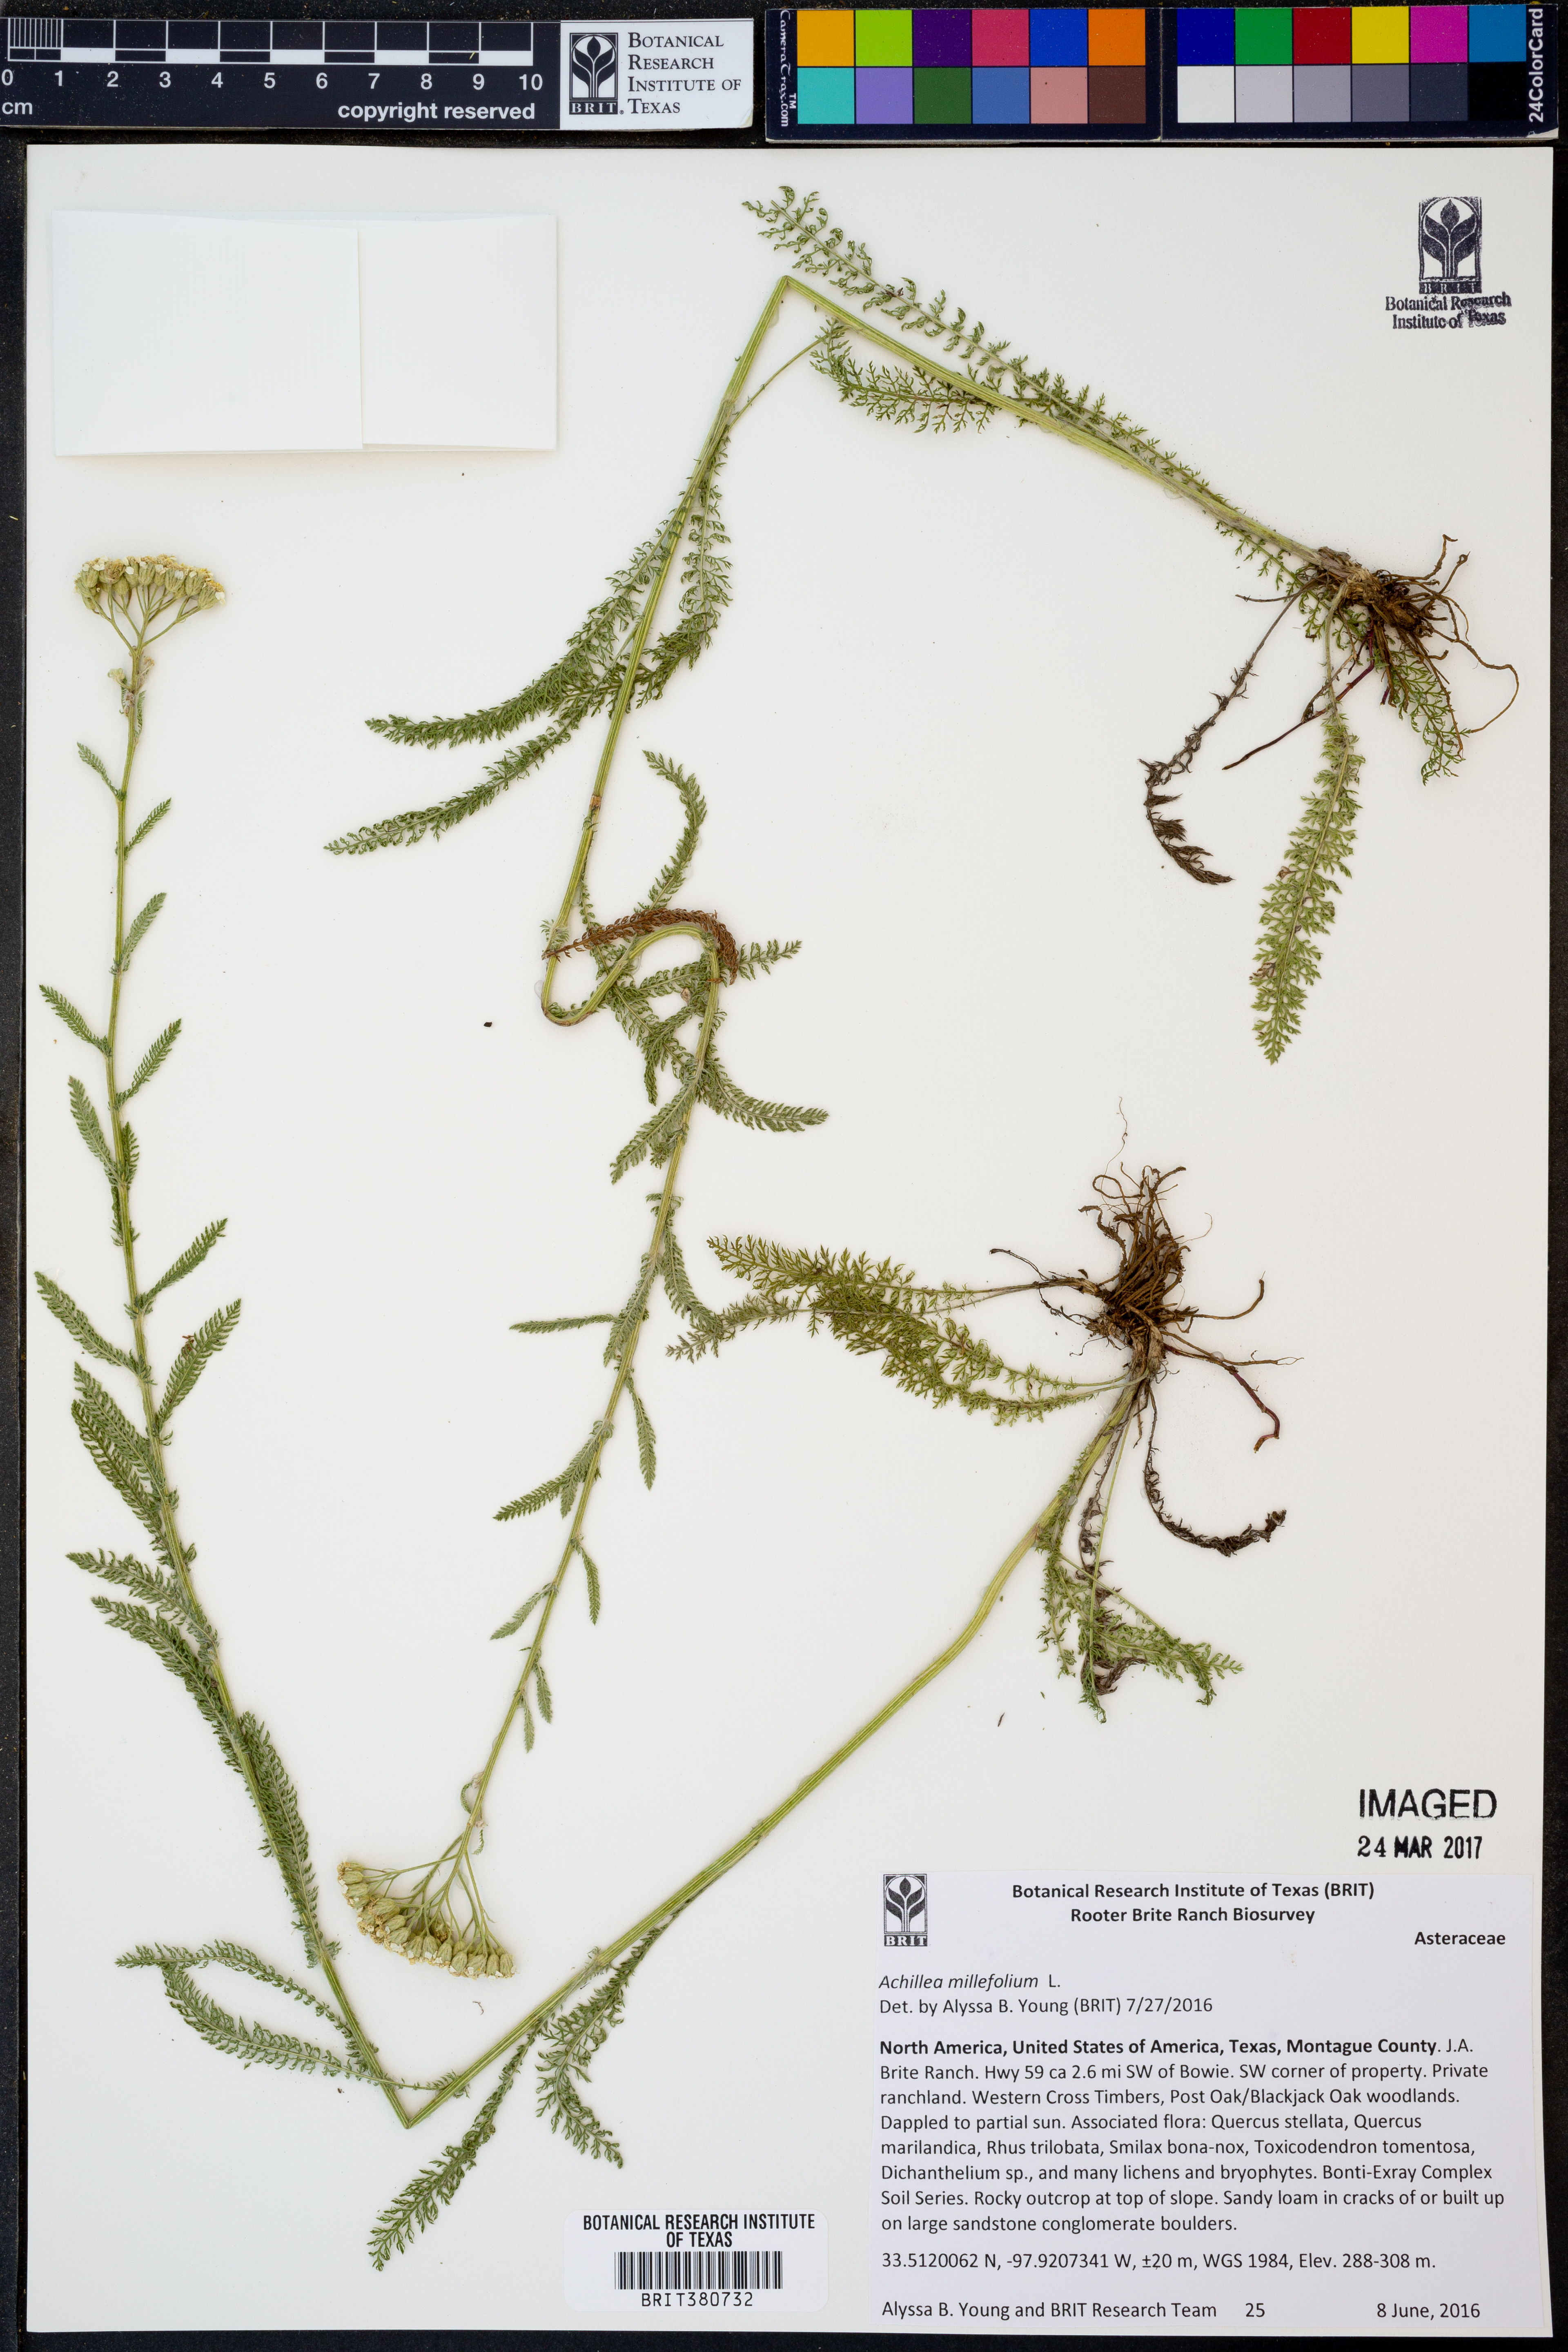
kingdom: Plantae
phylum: Tracheophyta
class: Magnoliopsida
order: Asterales
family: Asteraceae
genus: Achillea
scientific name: Achillea millefolium
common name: Yarrow
